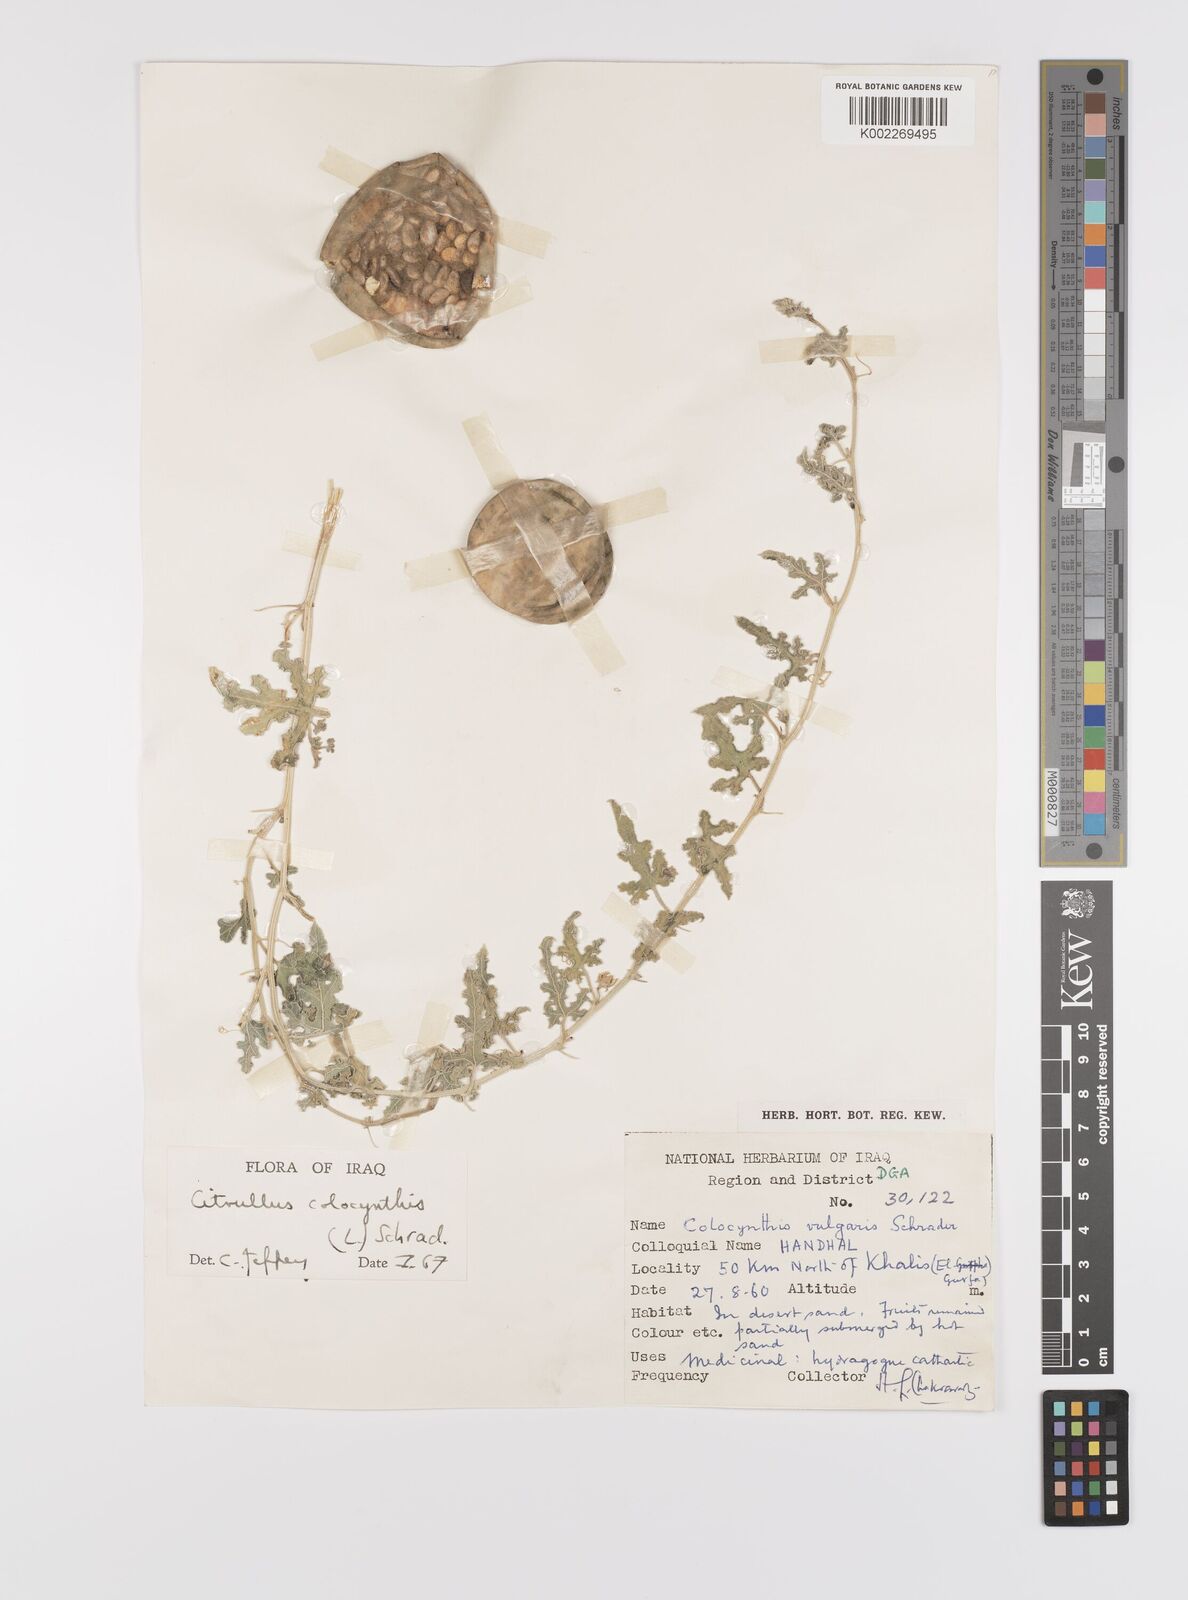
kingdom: Plantae
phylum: Tracheophyta
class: Magnoliopsida
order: Cucurbitales
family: Cucurbitaceae
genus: Citrullus
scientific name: Citrullus colocynthis
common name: Colocynth
